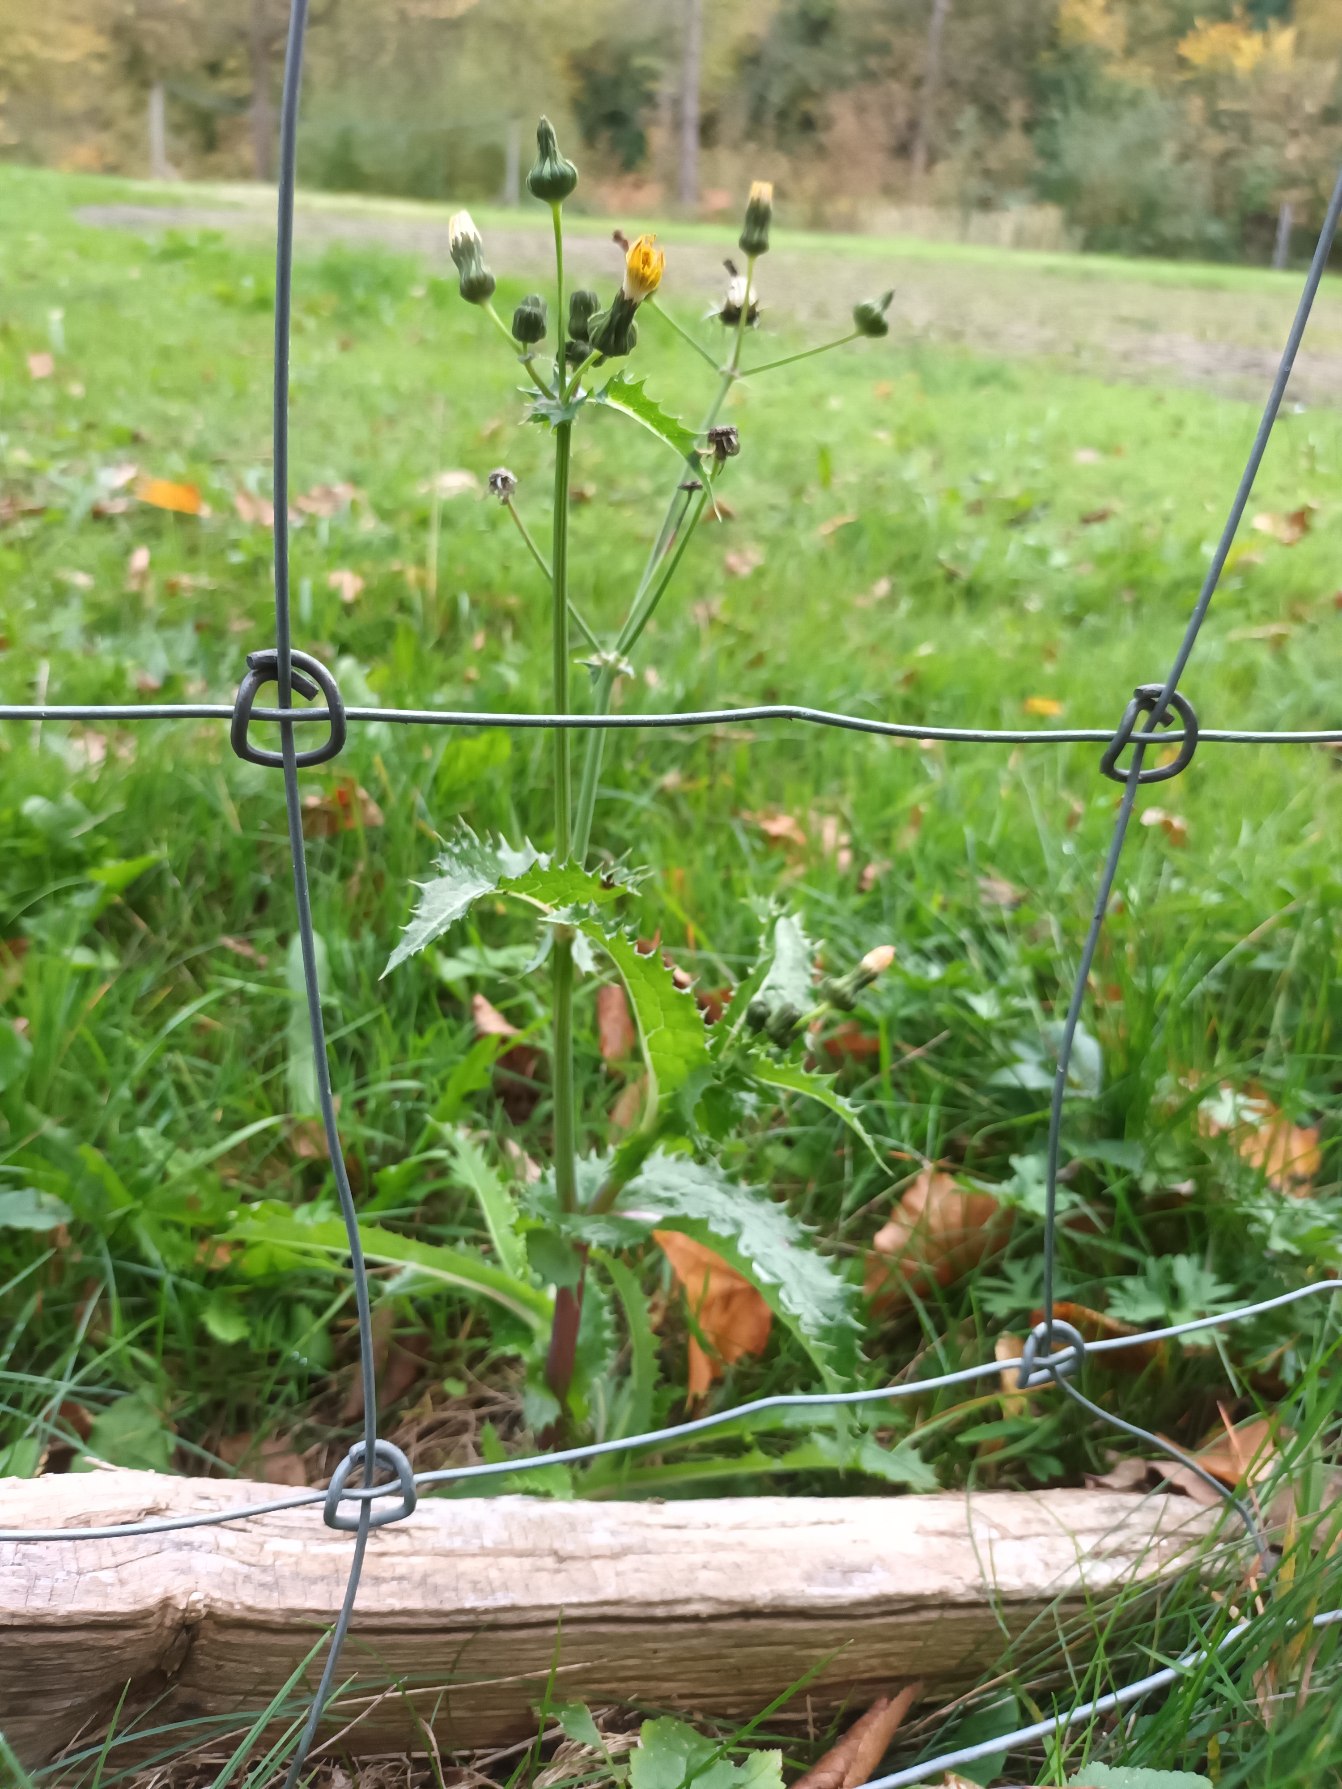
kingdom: Plantae
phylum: Tracheophyta
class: Magnoliopsida
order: Asterales
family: Asteraceae
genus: Sonchus
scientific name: Sonchus asper
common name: Ru svinemælk
